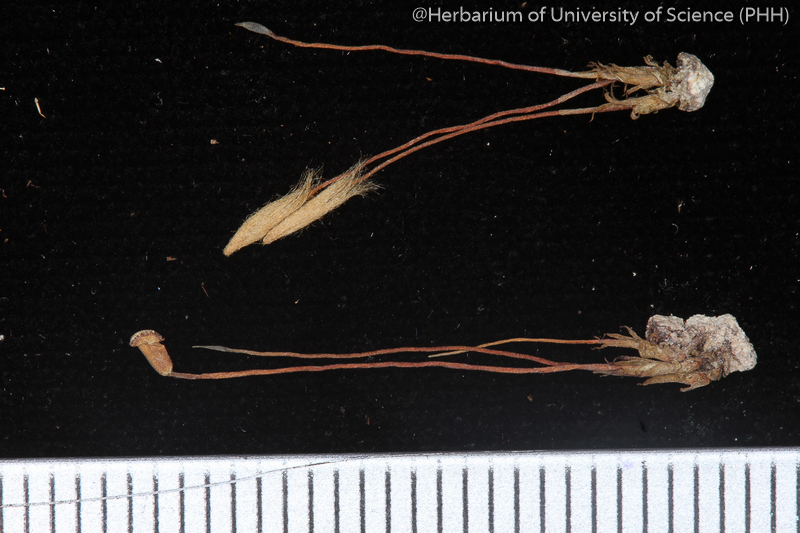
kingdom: Plantae
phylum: Bryophyta
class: Polytrichopsida
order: Polytrichales
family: Polytrichaceae
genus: Pogonatum
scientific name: Pogonatum piliferum
